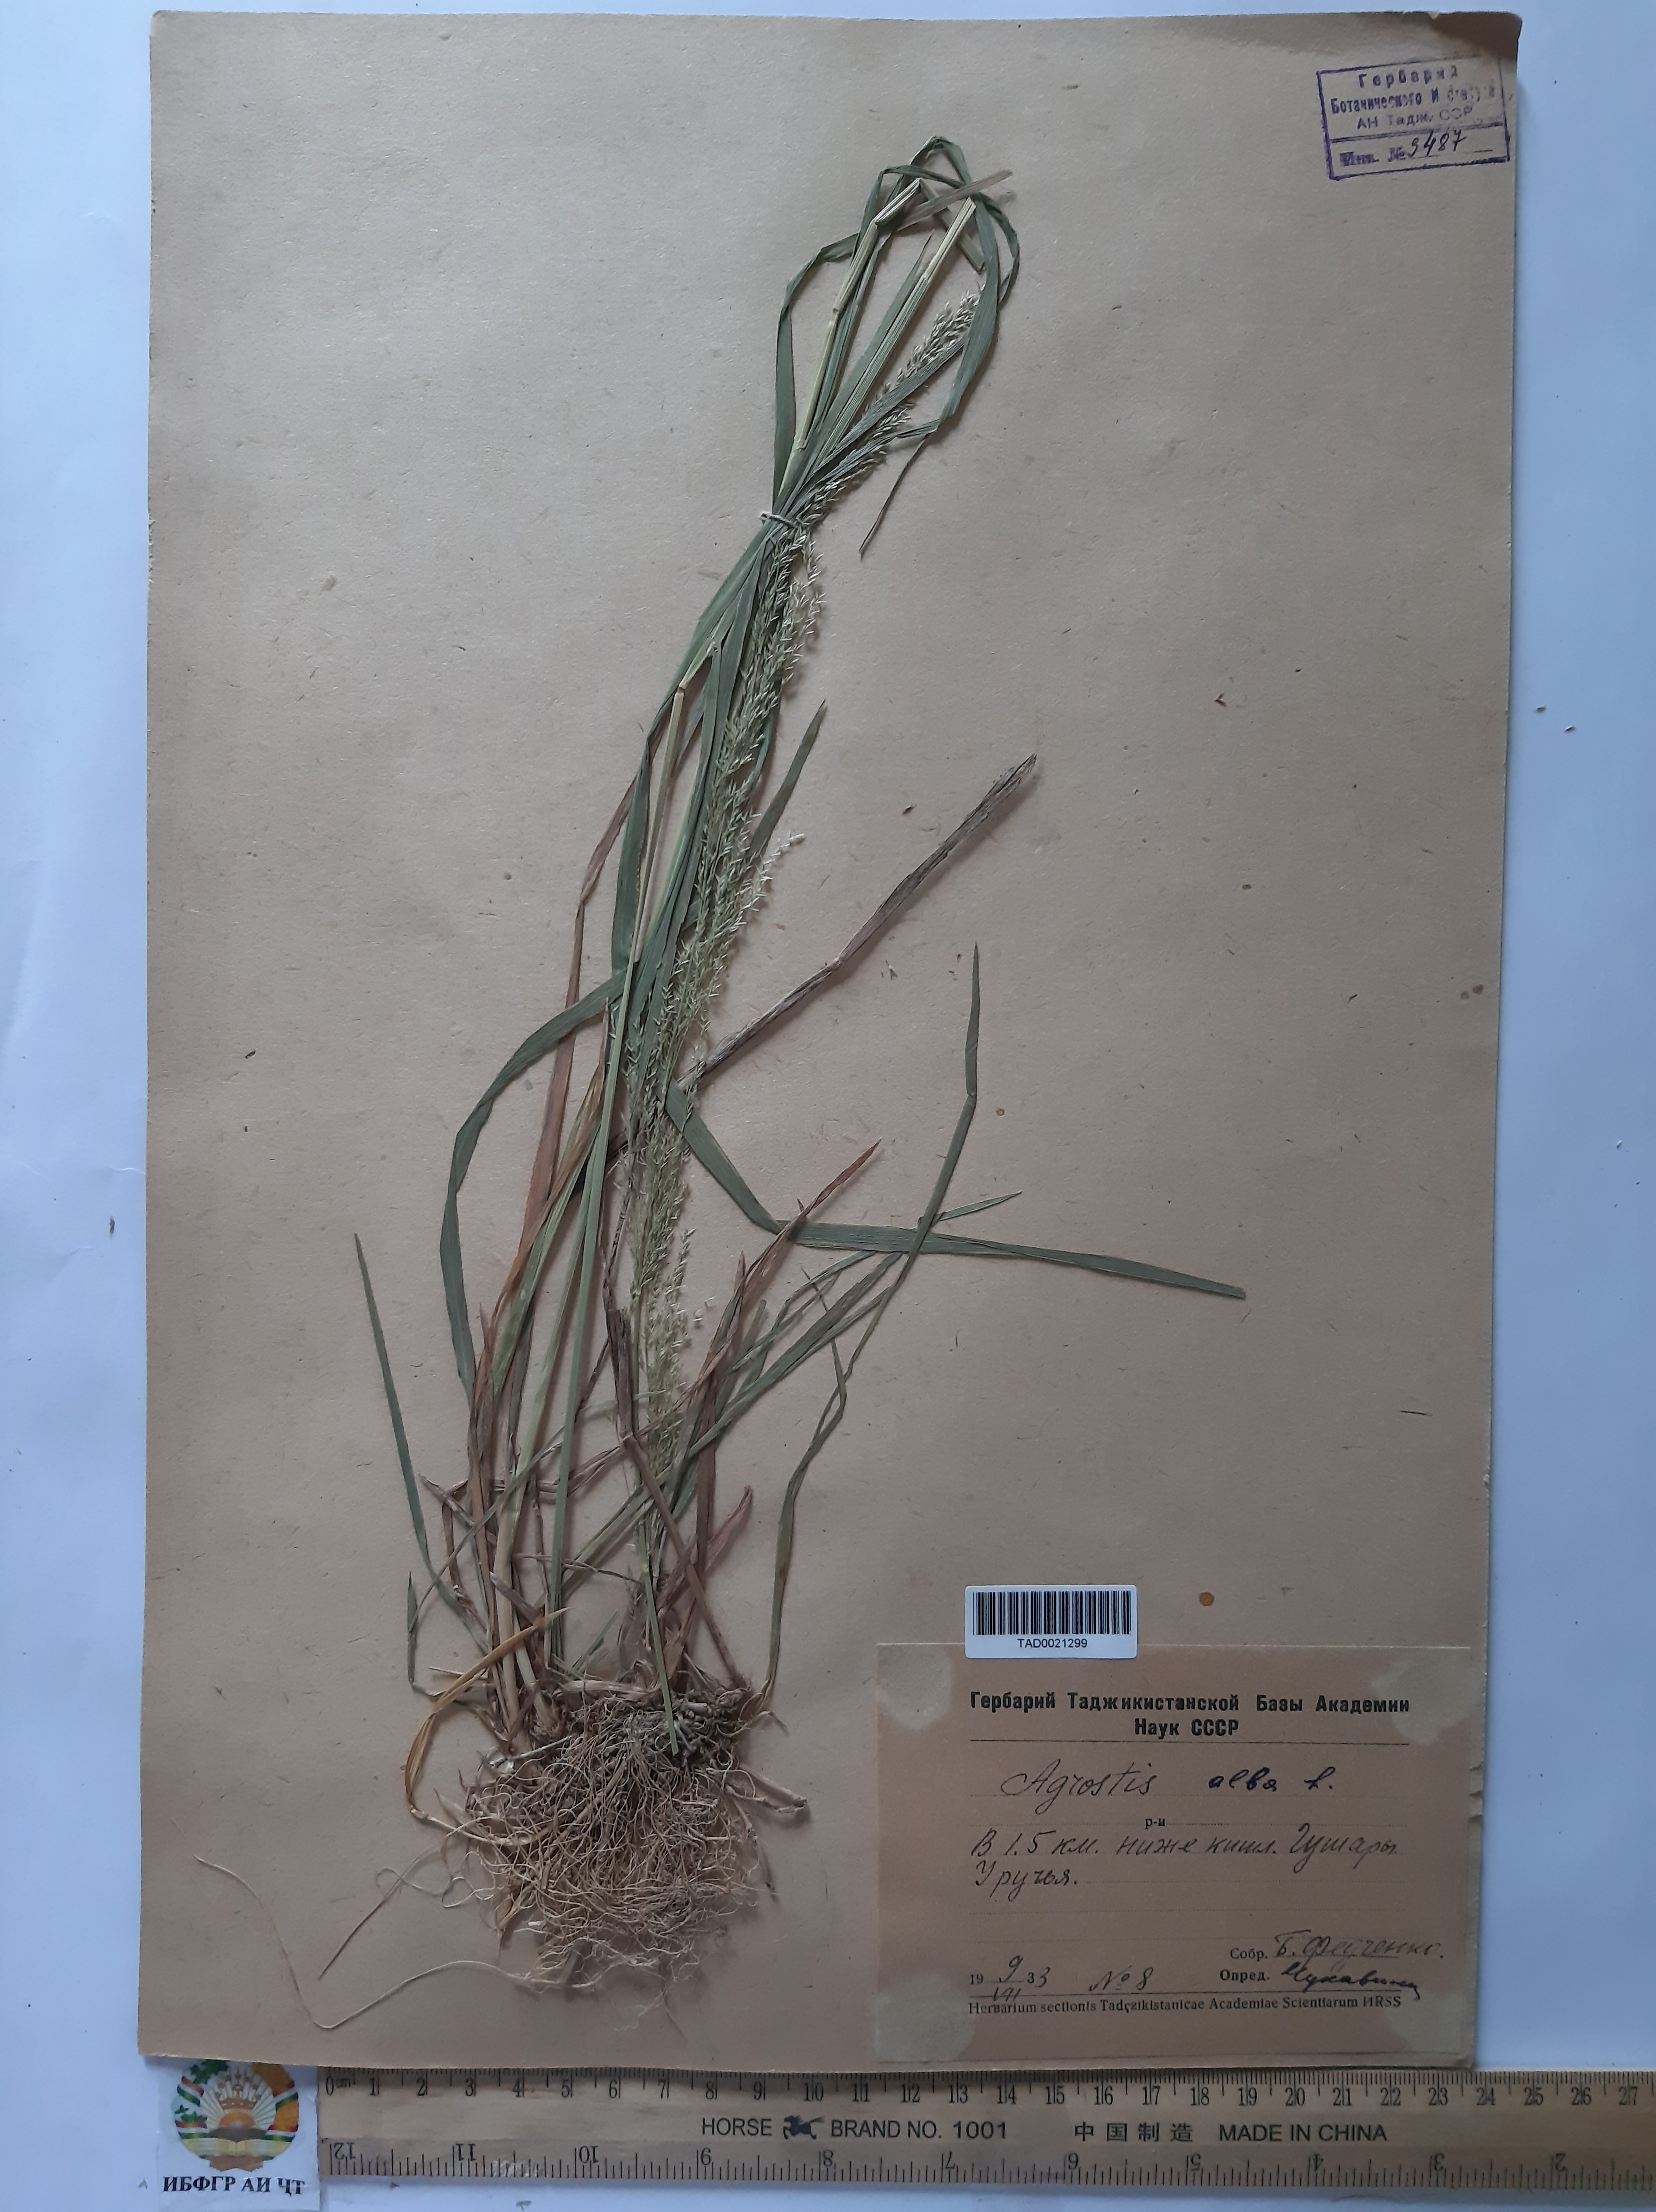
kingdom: Plantae
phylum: Tracheophyta
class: Liliopsida
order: Poales
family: Poaceae
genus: Poa
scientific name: Poa nemoralis
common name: Wood bluegrass
